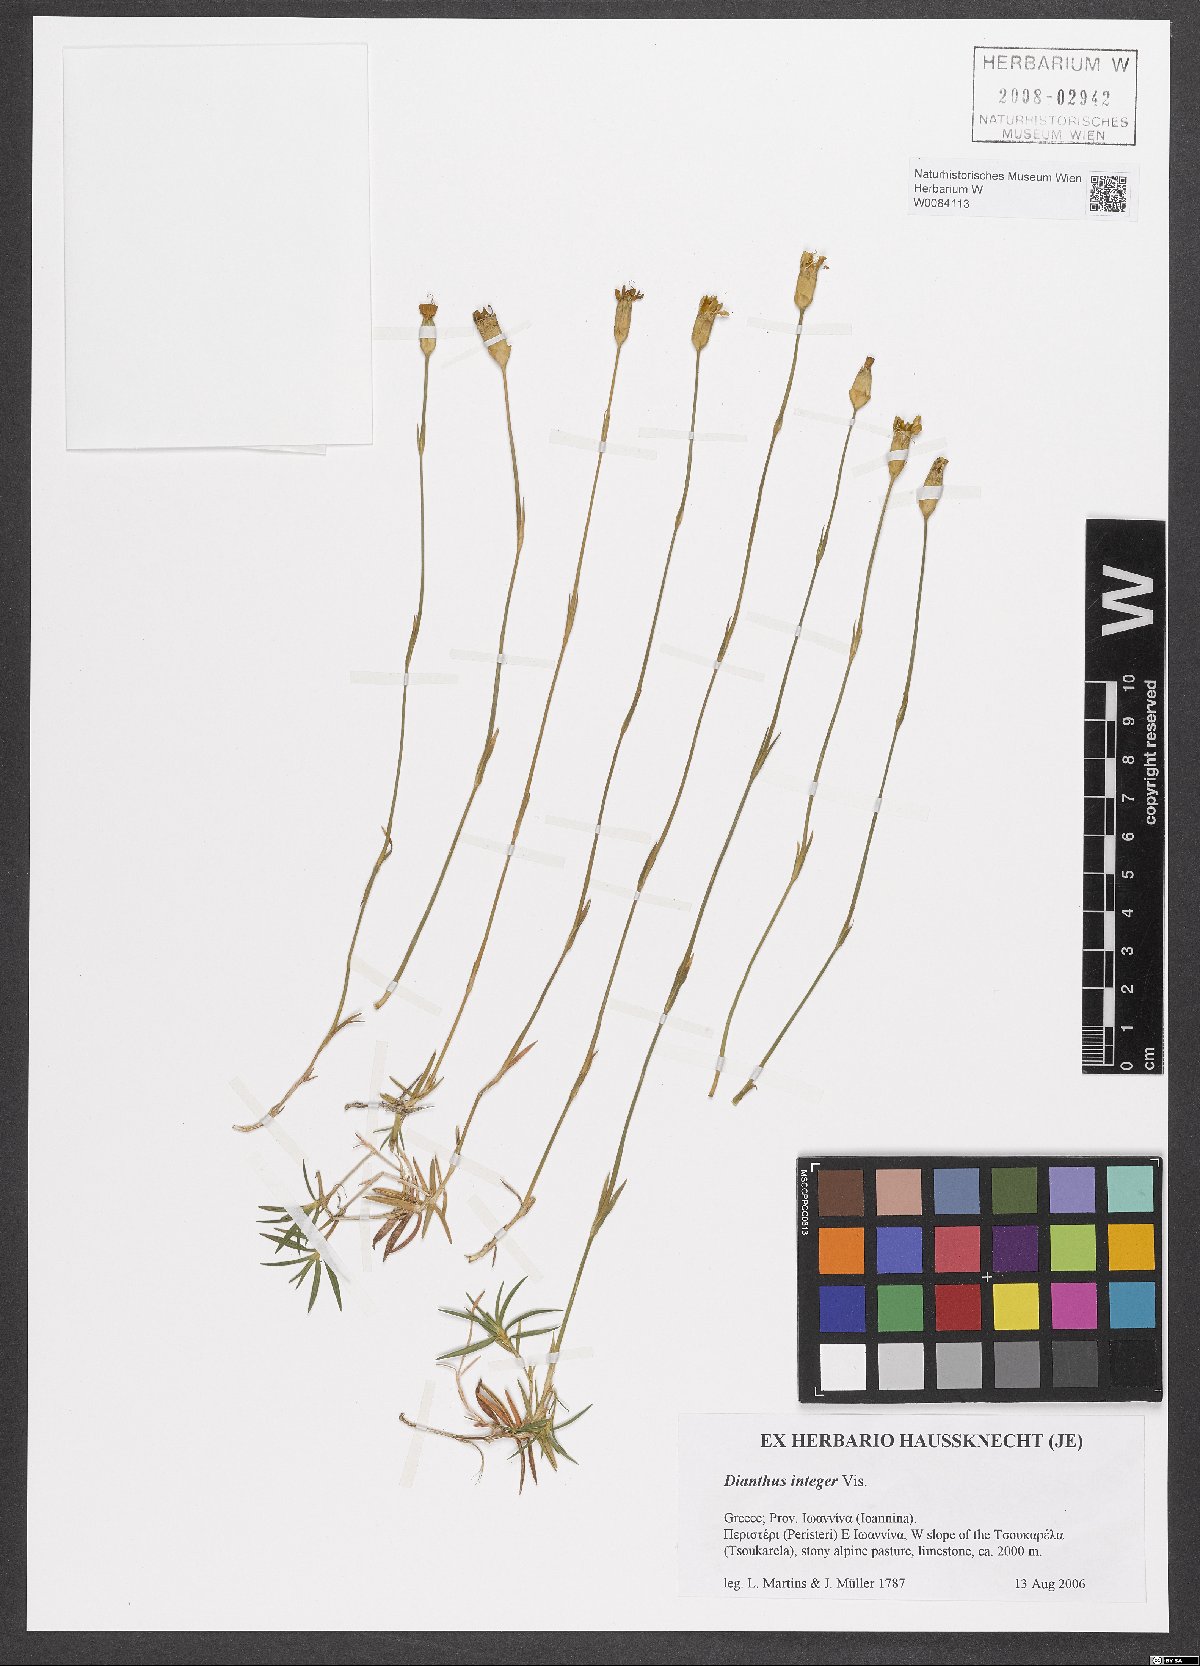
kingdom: Plantae
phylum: Tracheophyta
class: Magnoliopsida
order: Caryophyllales
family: Caryophyllaceae
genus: Dianthus
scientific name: Dianthus integer
